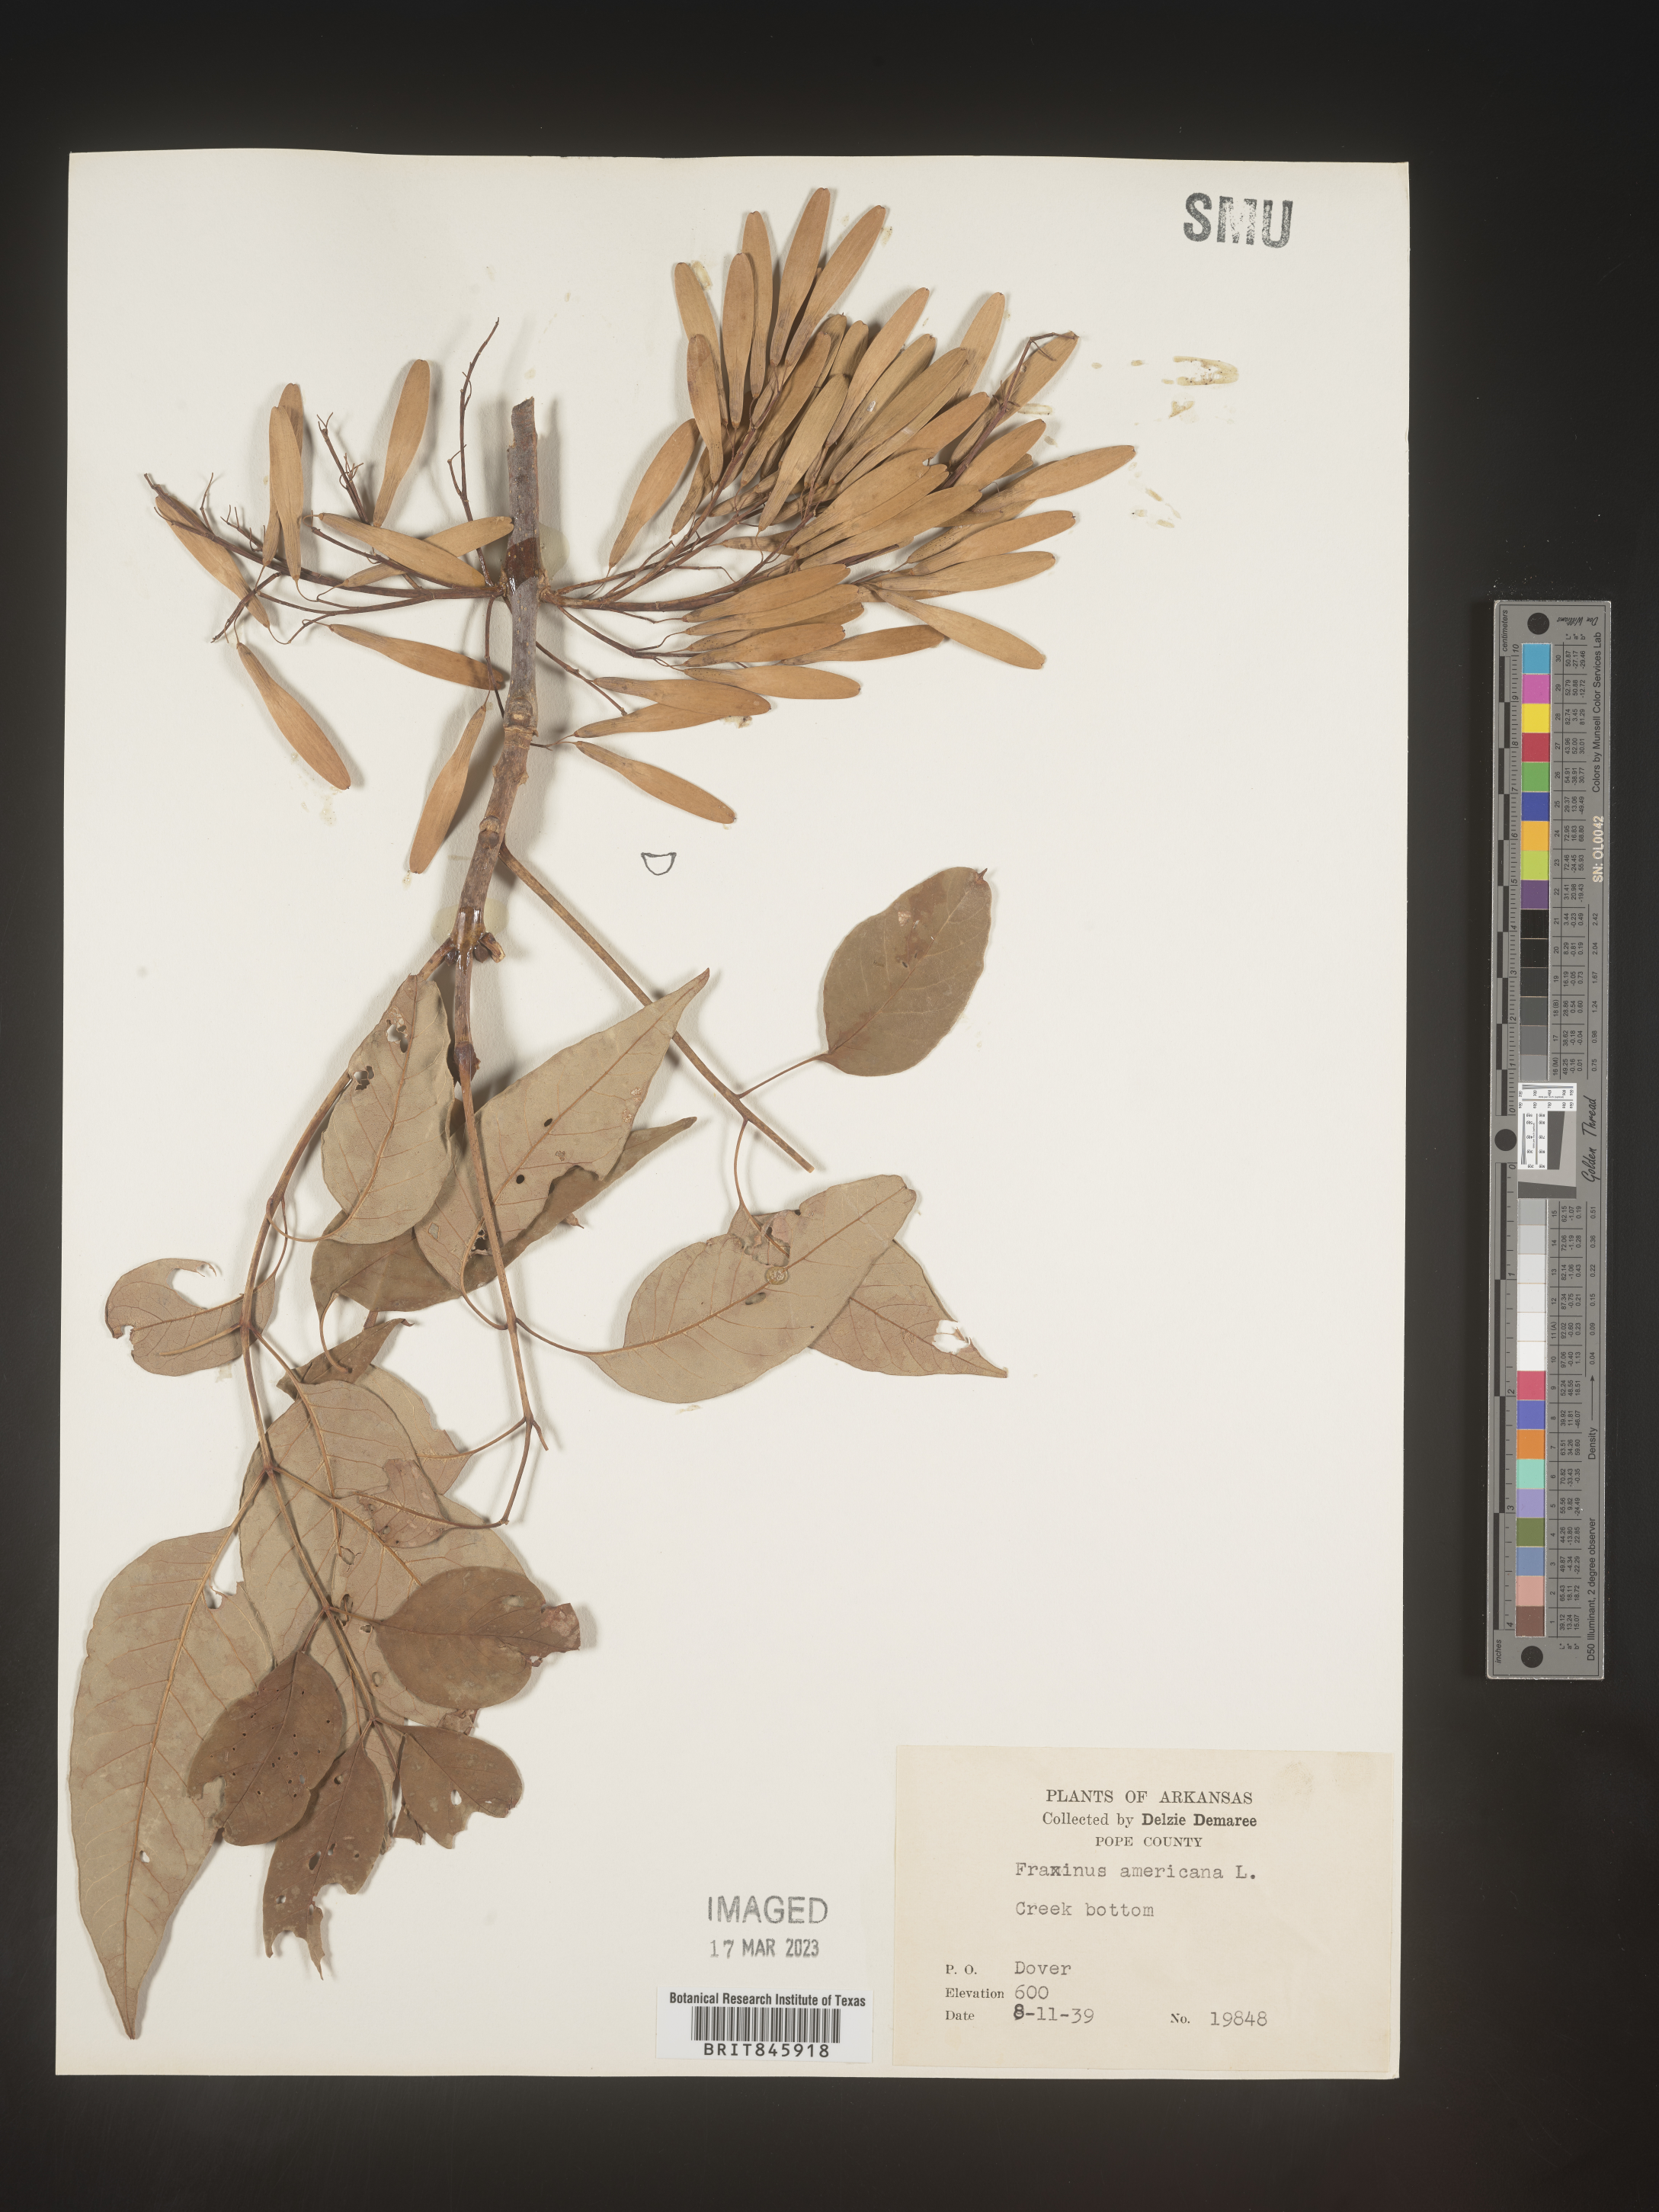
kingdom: Plantae
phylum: Tracheophyta
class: Magnoliopsida
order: Lamiales
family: Oleaceae
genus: Fraxinus
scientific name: Fraxinus americana
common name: White ash
